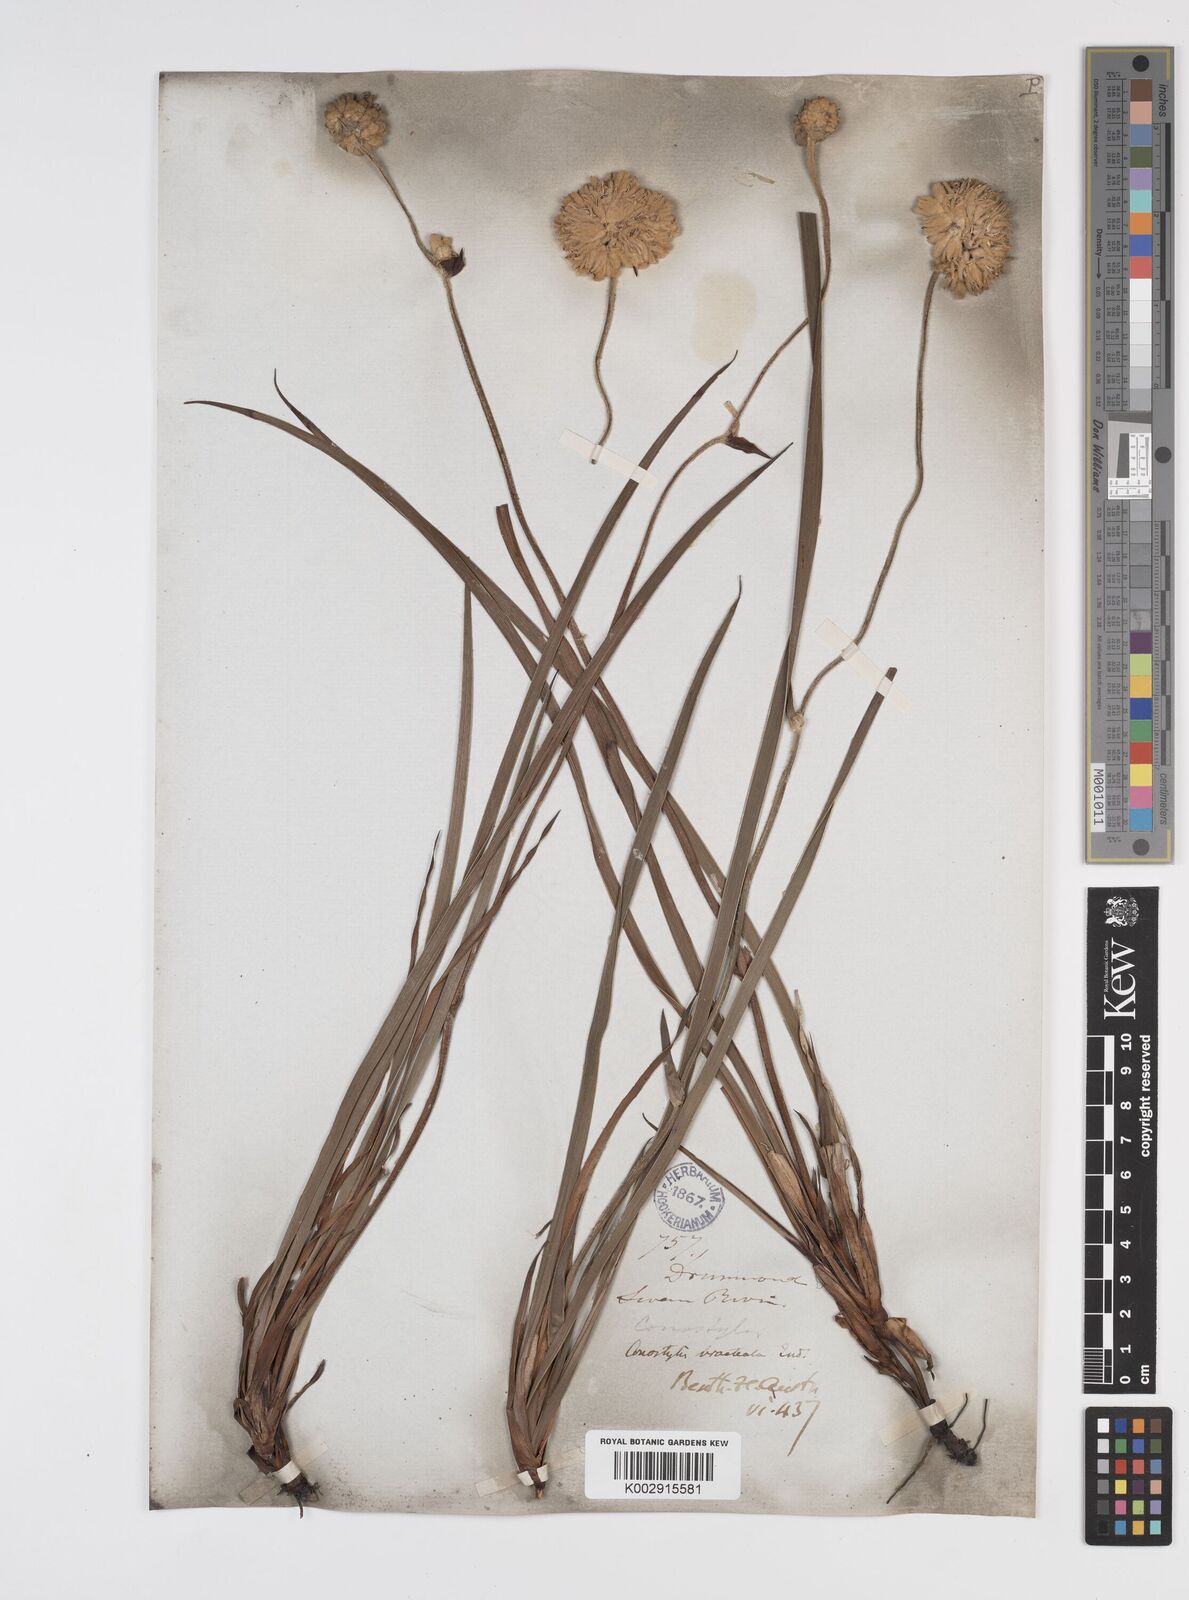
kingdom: Plantae
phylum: Tracheophyta
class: Liliopsida
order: Commelinales
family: Haemodoraceae
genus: Conostylis
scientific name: Conostylis bracteata
